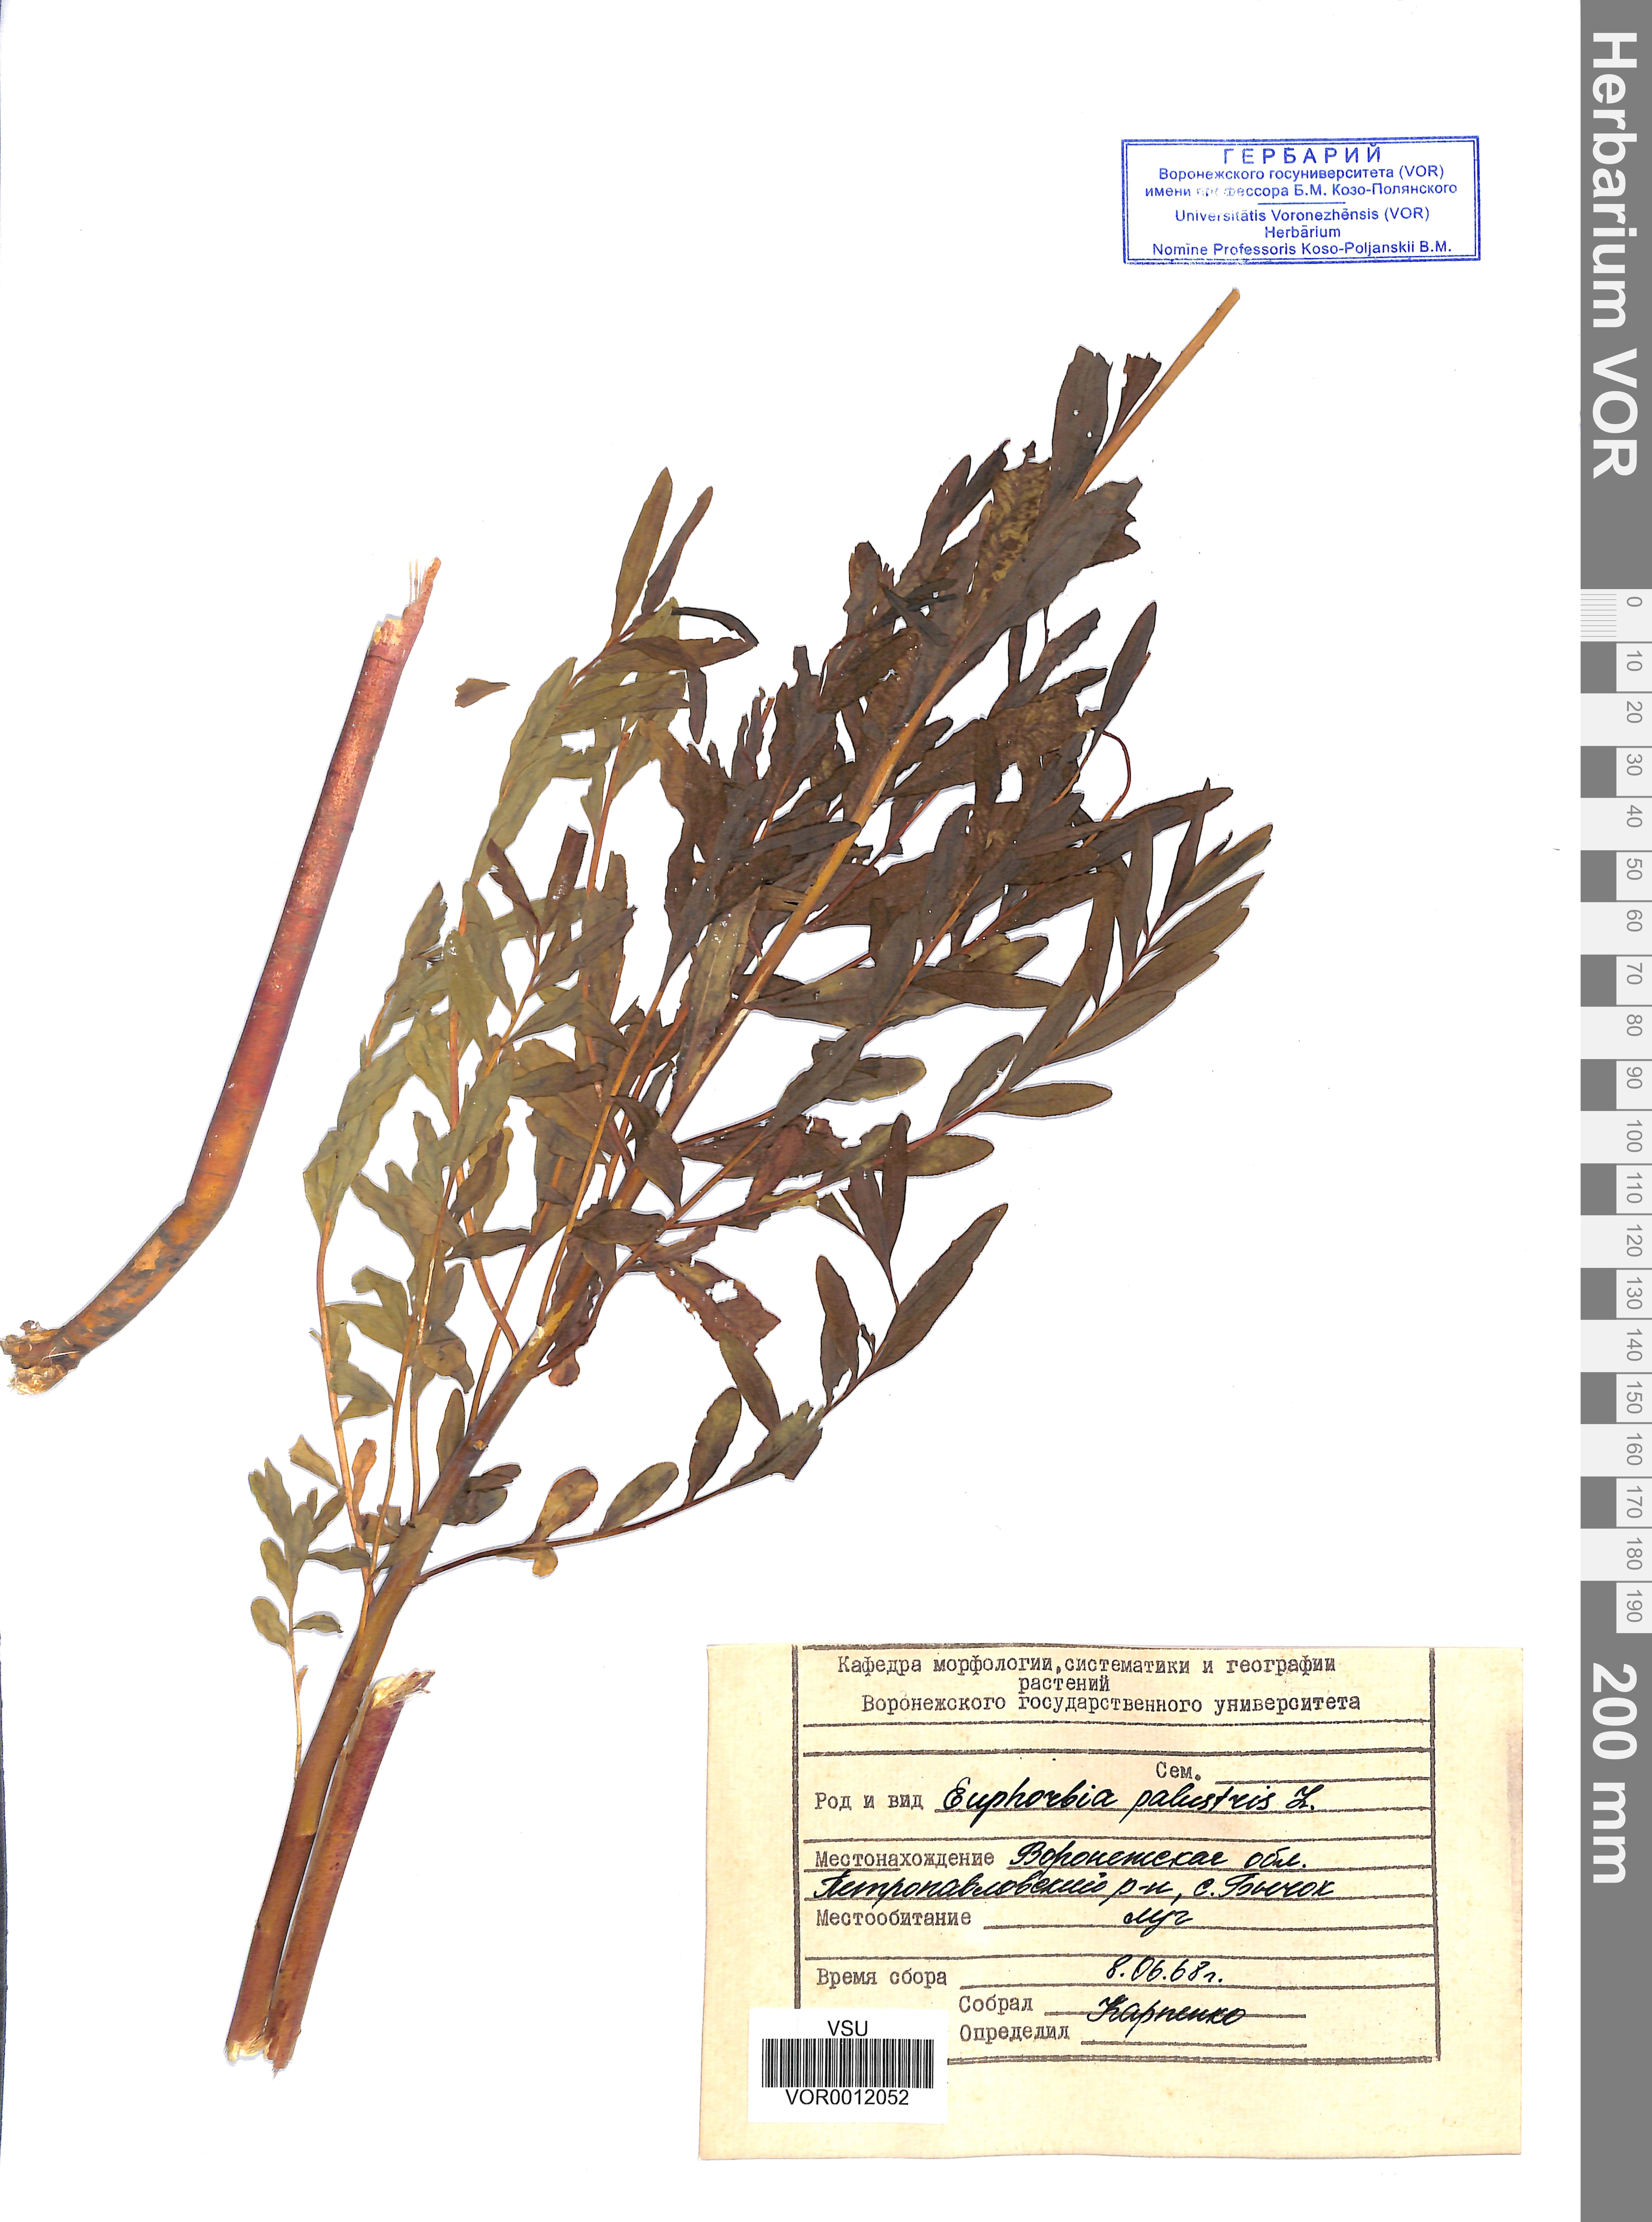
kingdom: Plantae
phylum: Tracheophyta
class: Magnoliopsida
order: Malpighiales
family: Euphorbiaceae
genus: Euphorbia
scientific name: Euphorbia palustris
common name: Marsh spurge
